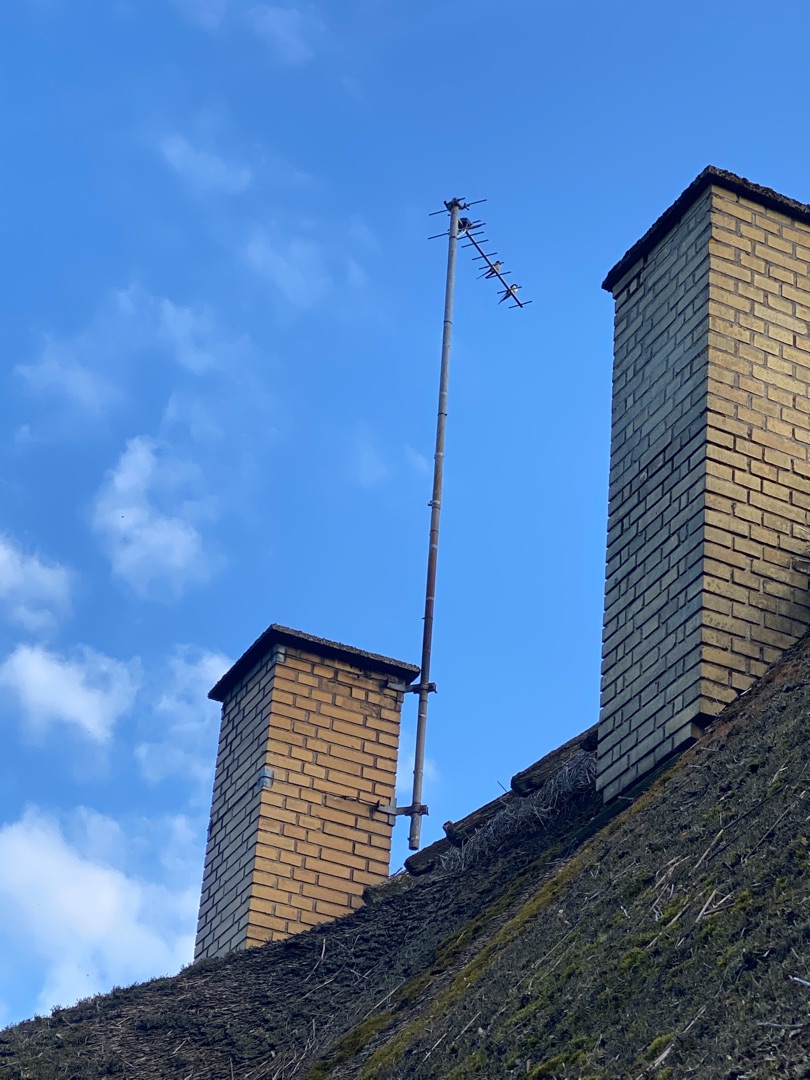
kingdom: Animalia
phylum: Chordata
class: Aves
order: Passeriformes
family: Hirundinidae
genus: Hirundo
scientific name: Hirundo rustica
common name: Landsvale
